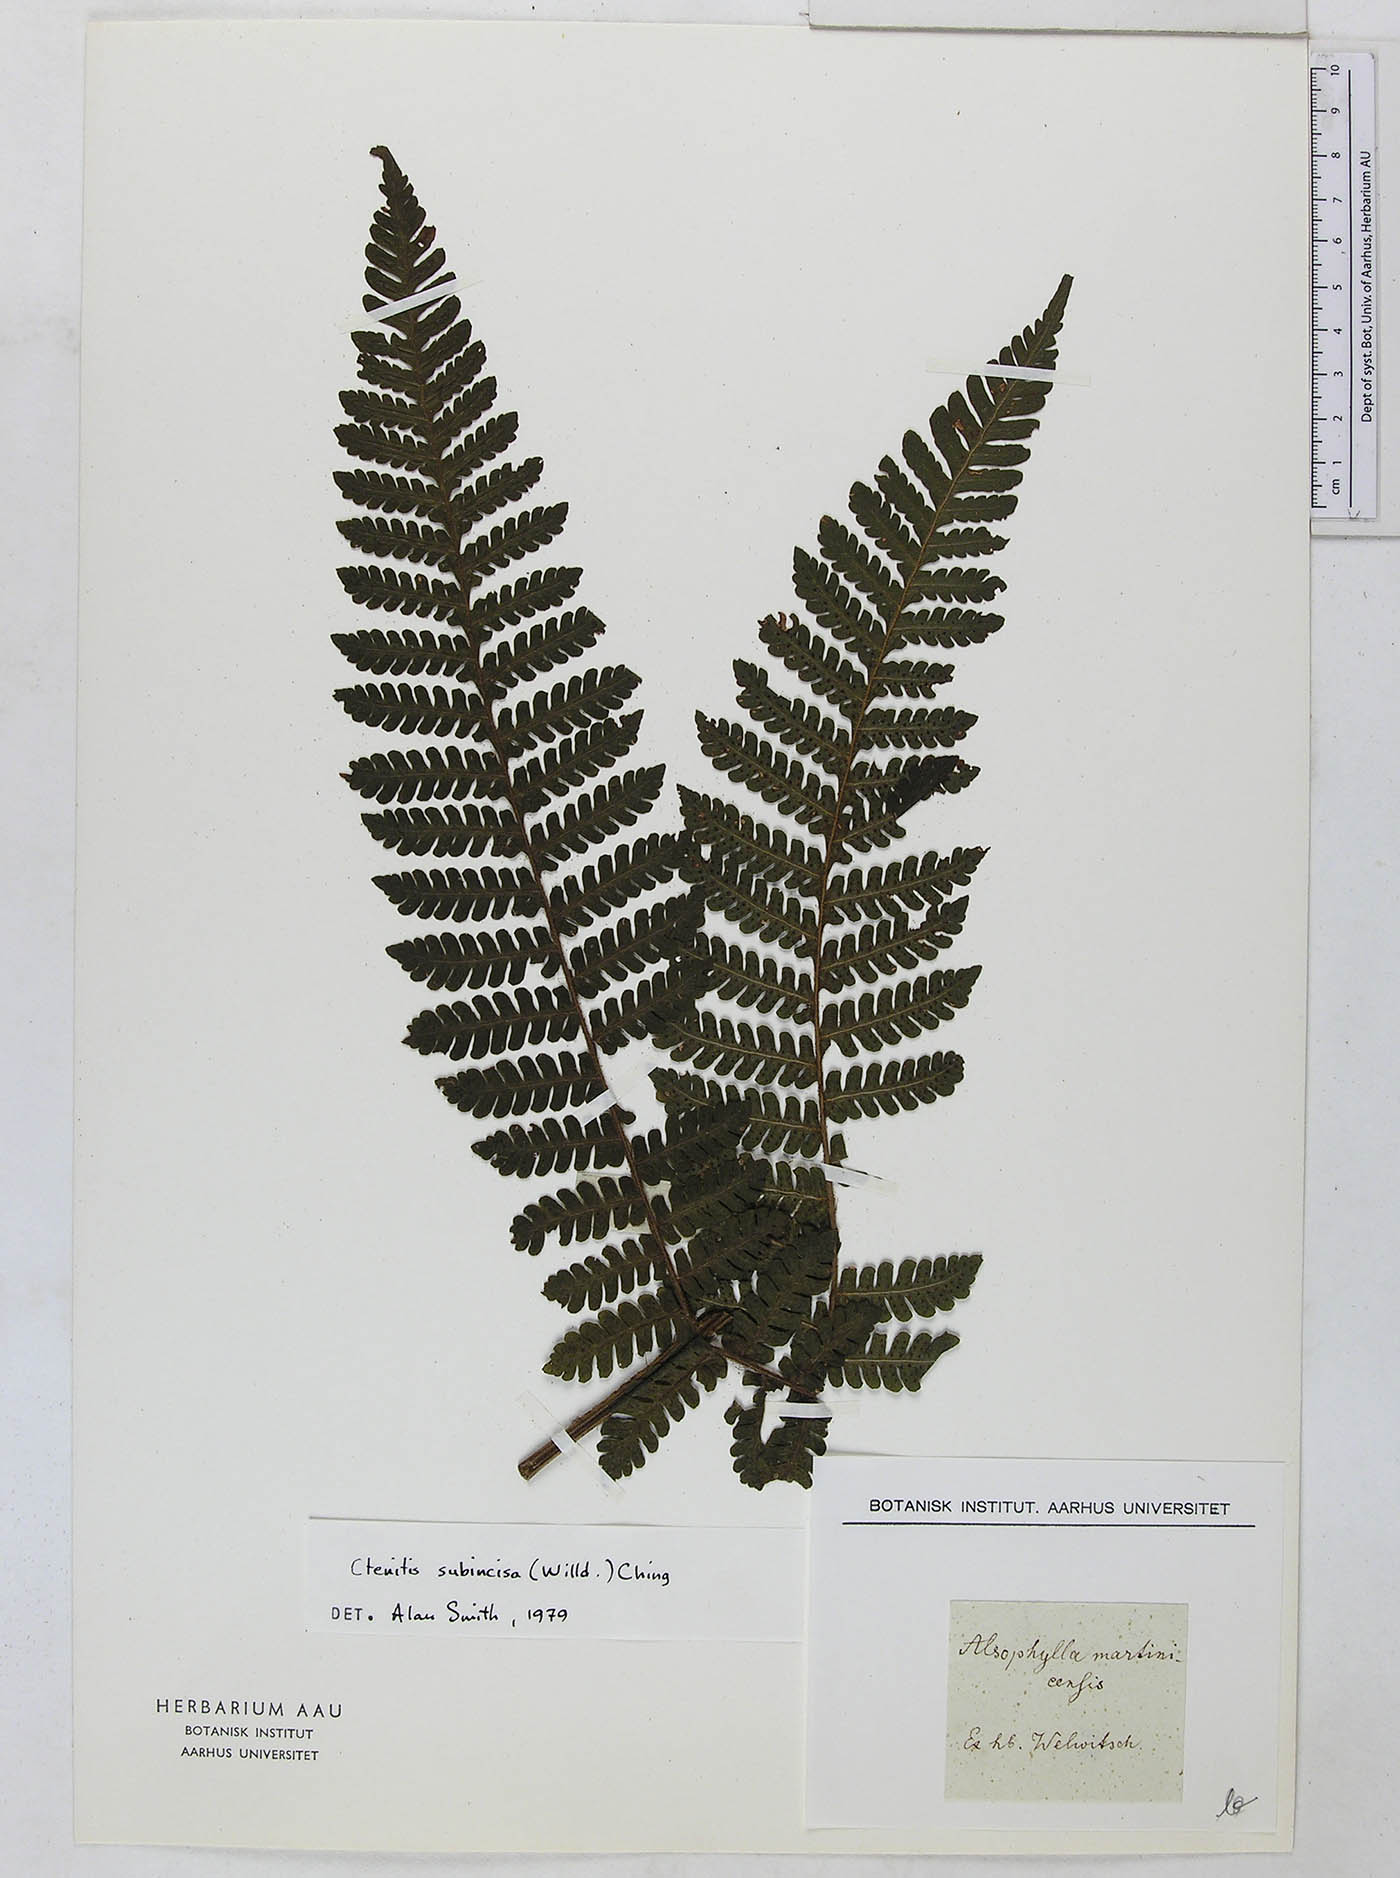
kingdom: Plantae
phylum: Tracheophyta
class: Polypodiopsida
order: Polypodiales
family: Dryopteridaceae
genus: Megalastrum
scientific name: Megalastrum martinicense
